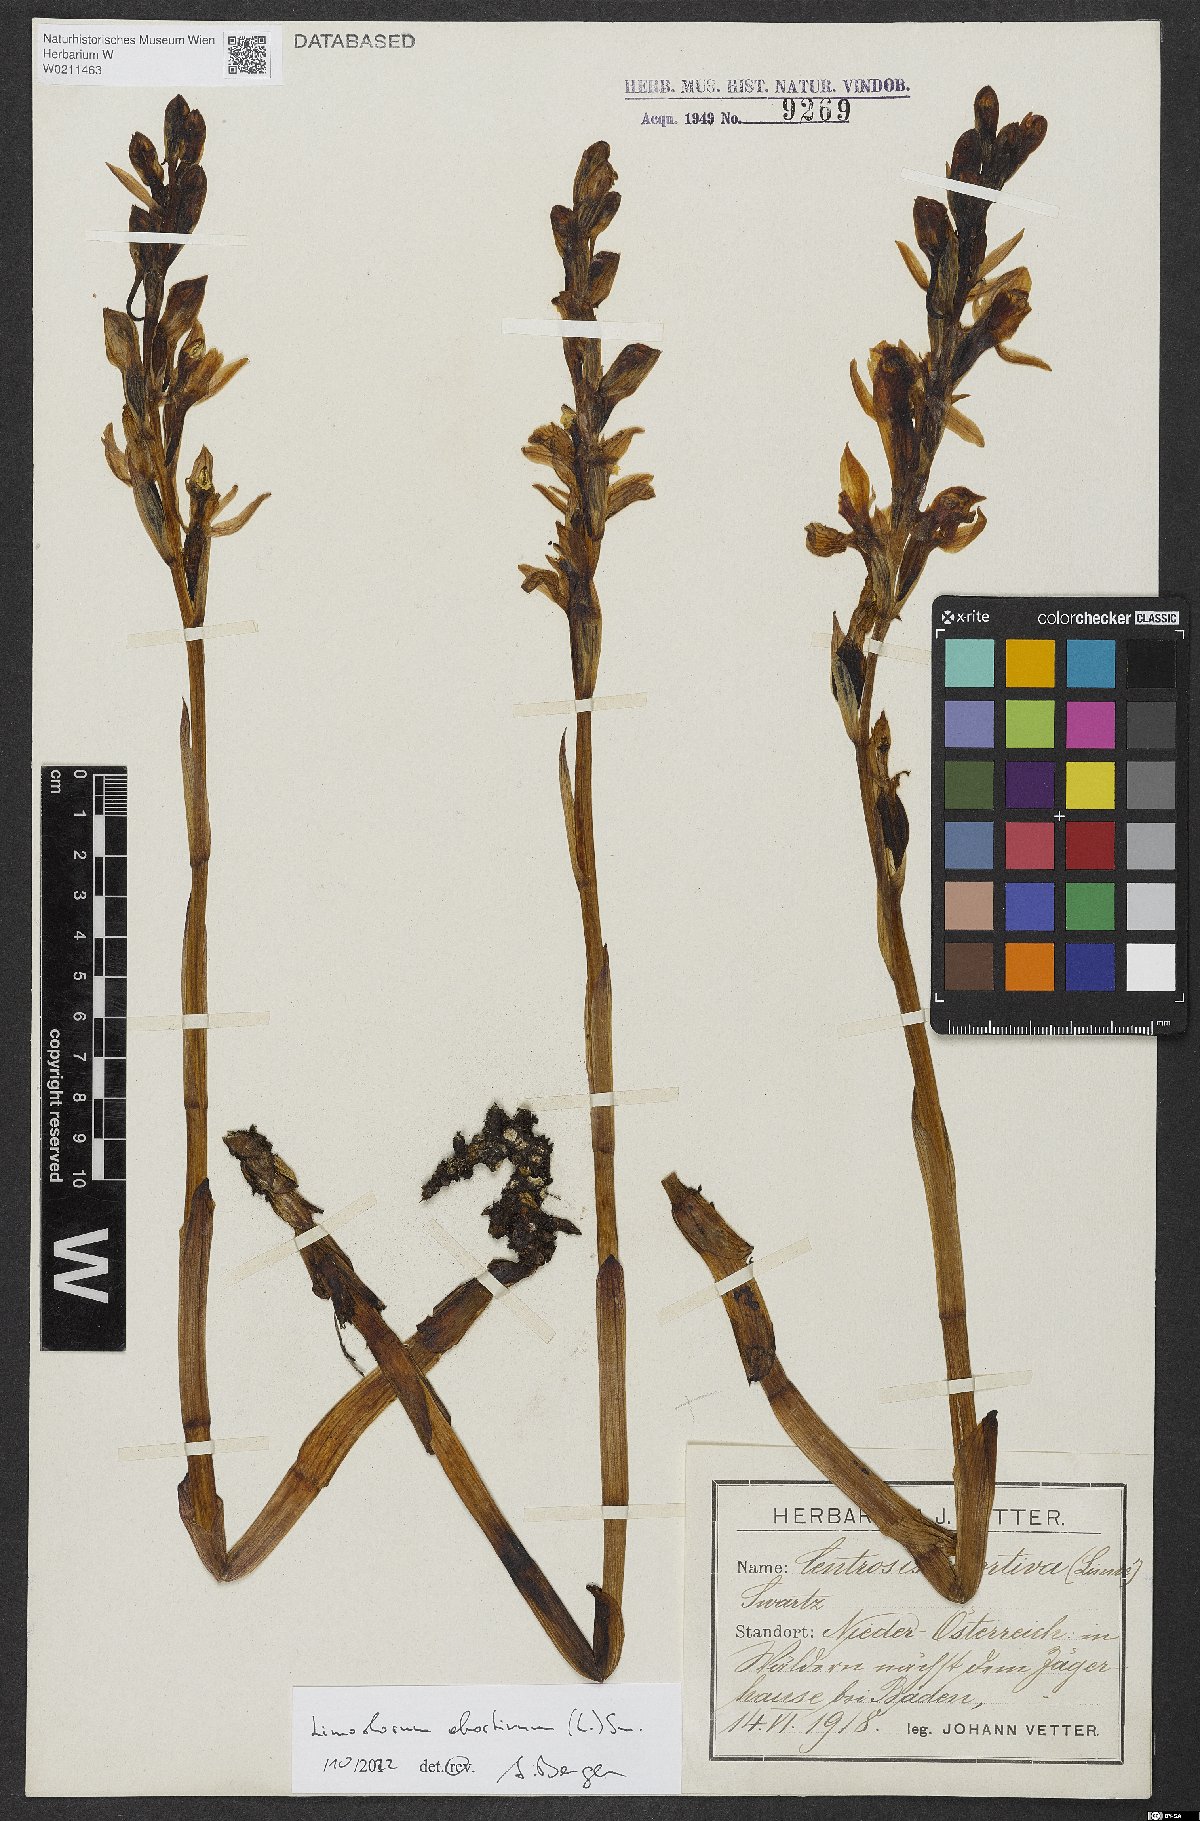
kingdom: Plantae
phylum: Tracheophyta
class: Liliopsida
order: Asparagales
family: Orchidaceae
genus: Limodorum
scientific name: Limodorum abortivum
